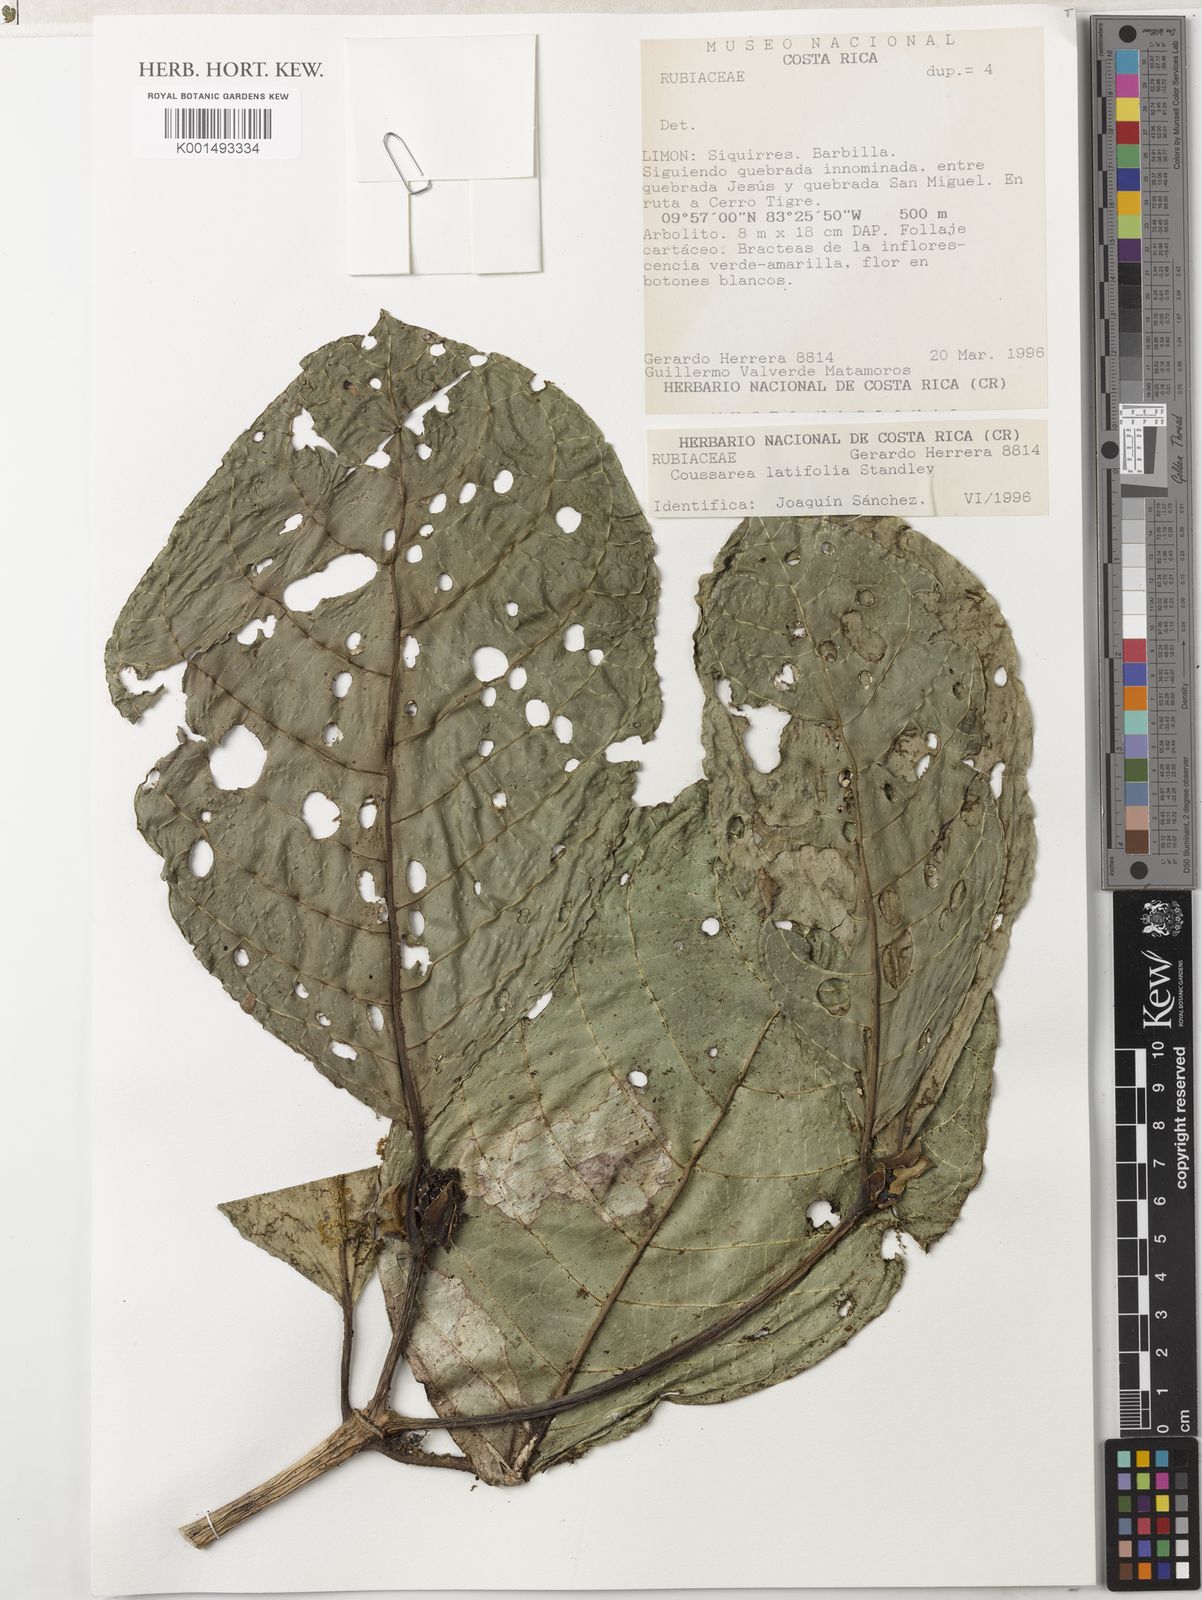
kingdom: Plantae
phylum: Tracheophyta
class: Magnoliopsida
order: Gentianales
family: Rubiaceae
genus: Coussarea
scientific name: Coussarea latifolia
